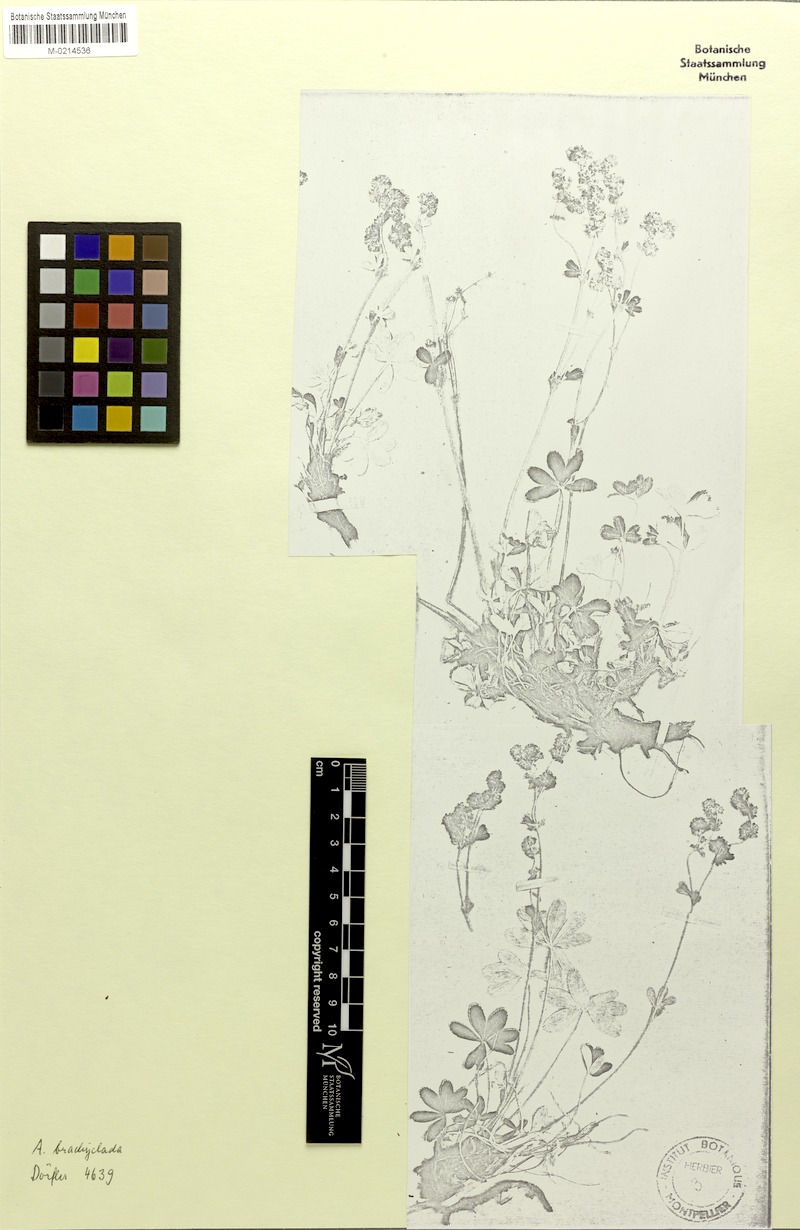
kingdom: Plantae
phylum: Tracheophyta
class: Magnoliopsida
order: Rosales
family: Rosaceae
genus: Alchemilla
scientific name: Alchemilla transiens
